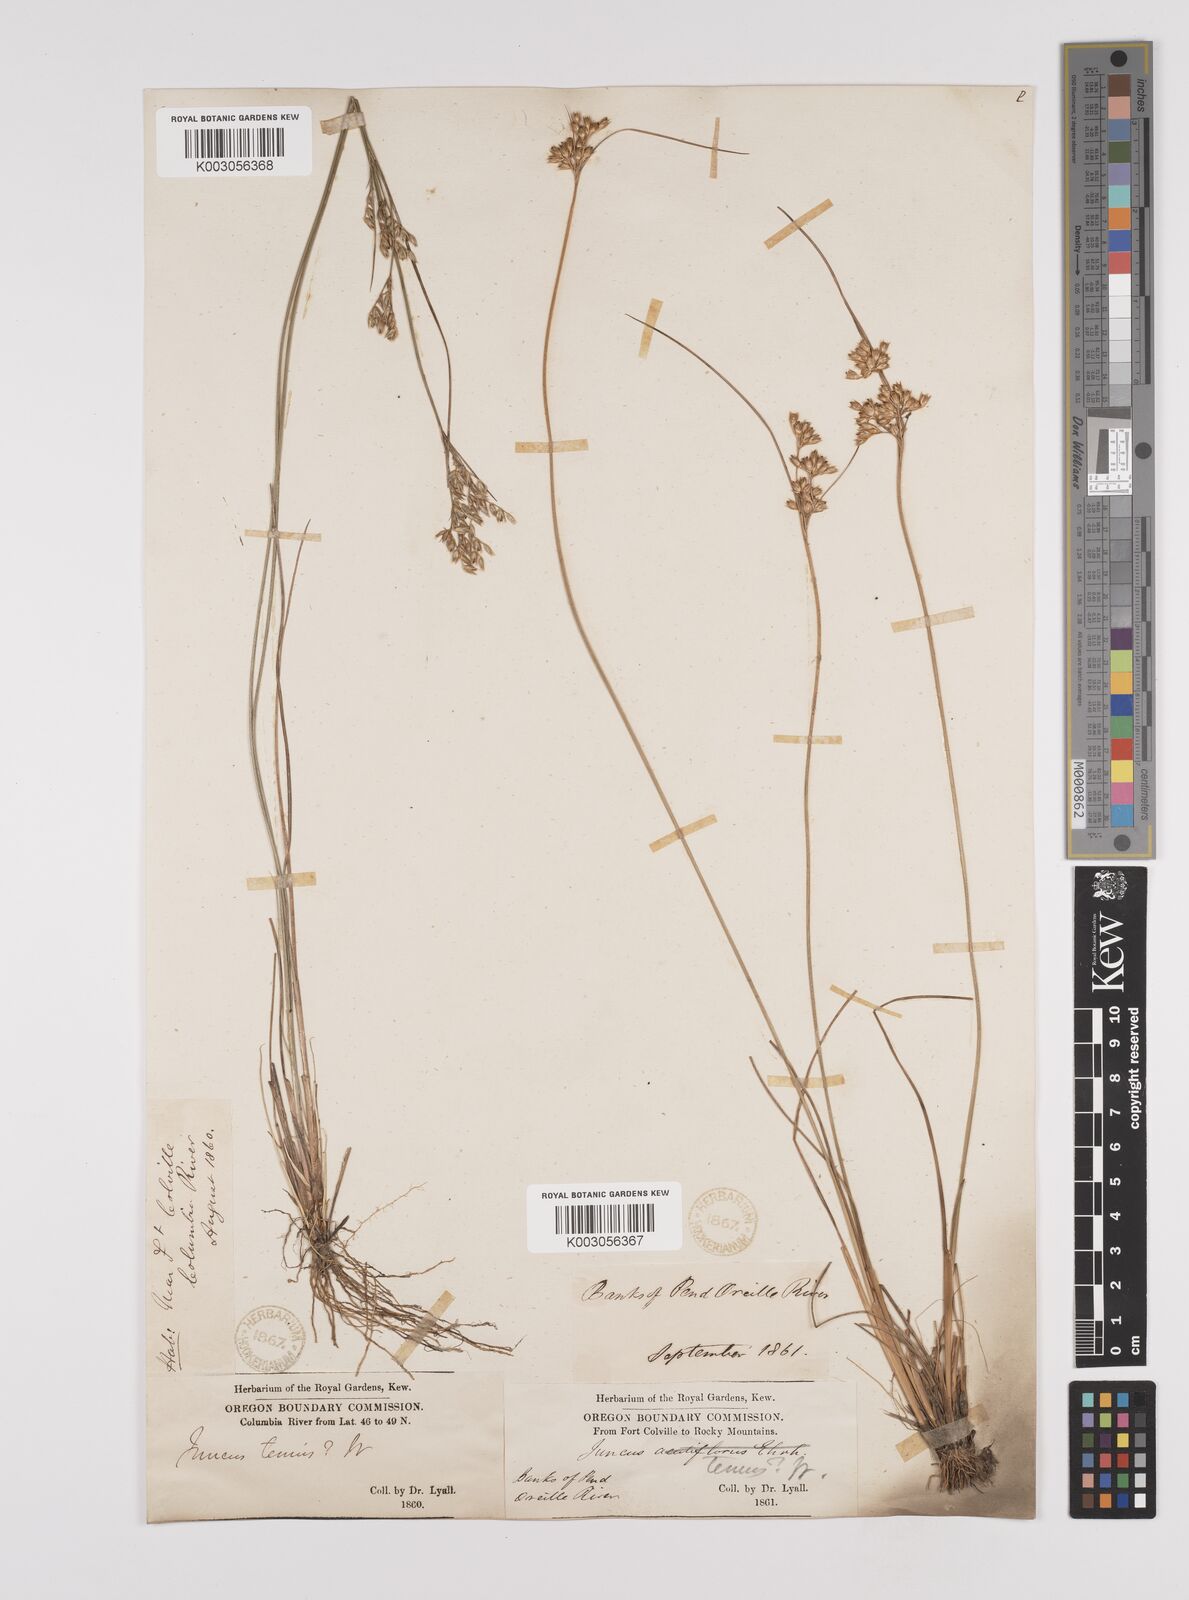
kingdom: Plantae
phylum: Tracheophyta
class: Liliopsida
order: Poales
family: Juncaceae
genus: Juncus
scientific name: Juncus tenuis
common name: Slender rush
